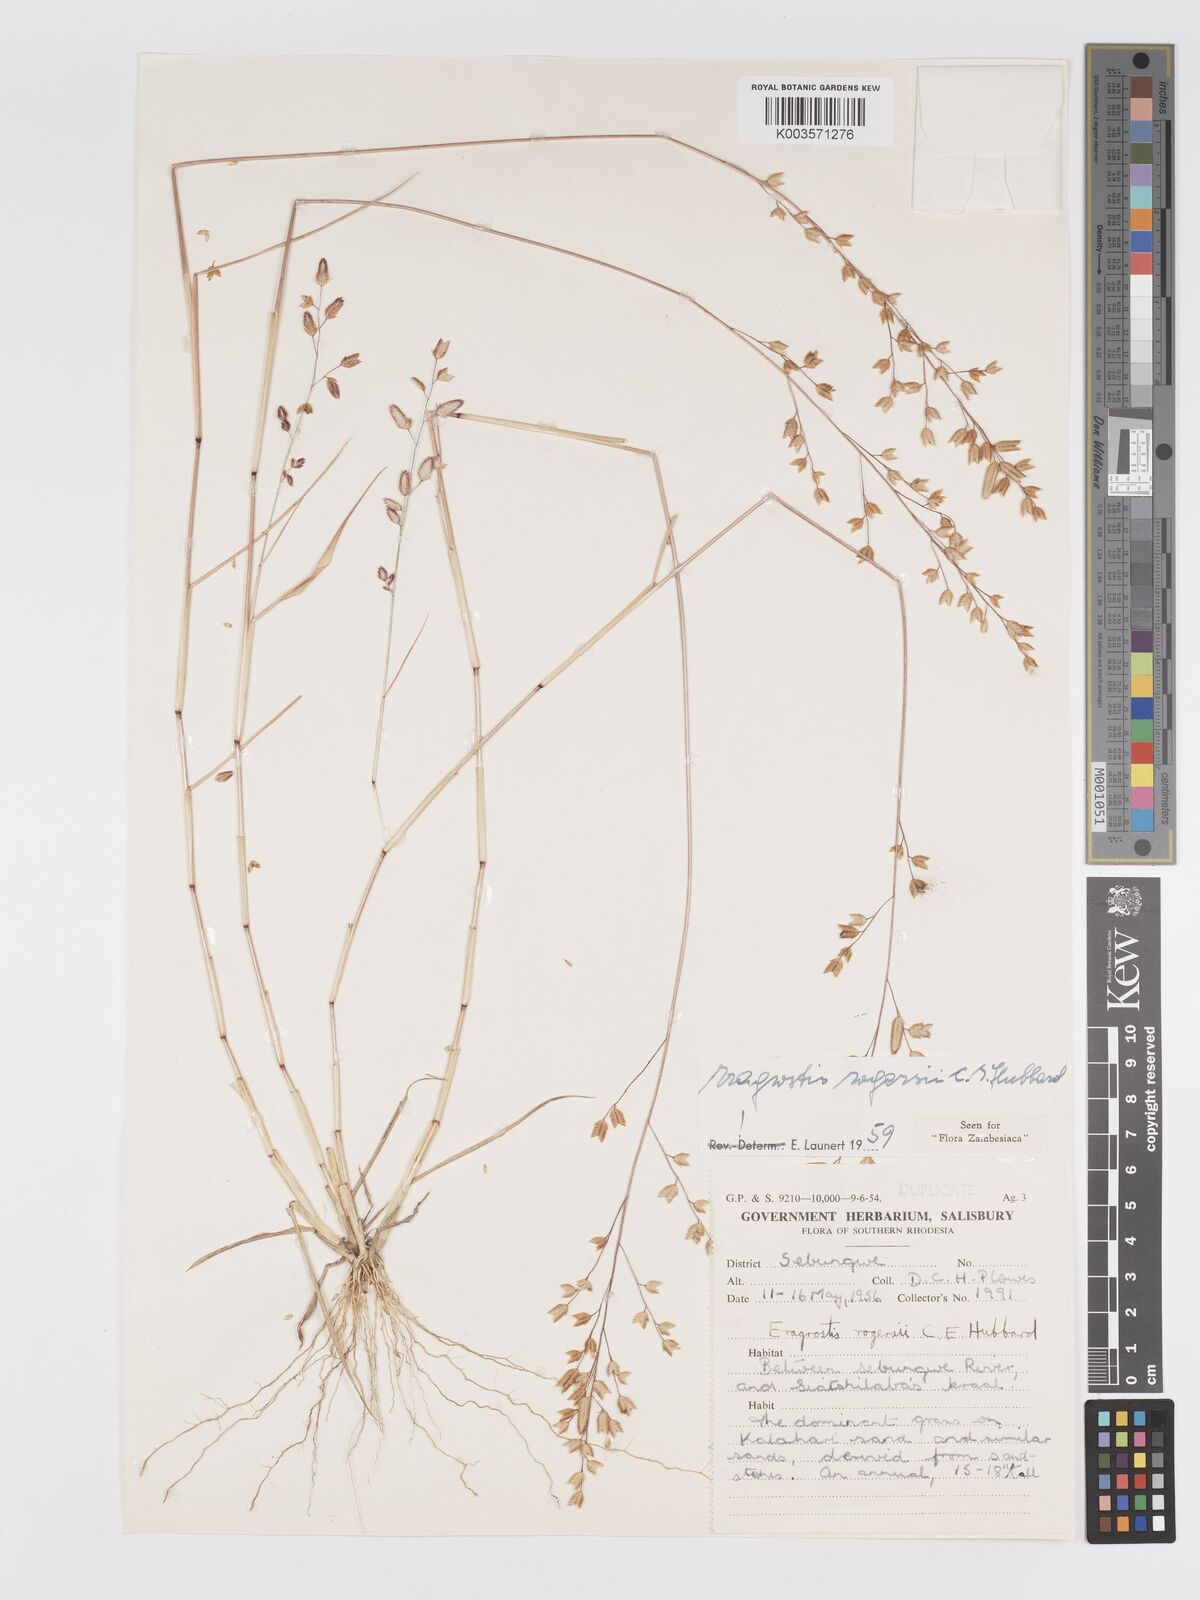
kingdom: Plantae
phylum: Tracheophyta
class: Liliopsida
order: Poales
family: Poaceae
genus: Eragrostis
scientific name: Eragrostis rogersii
